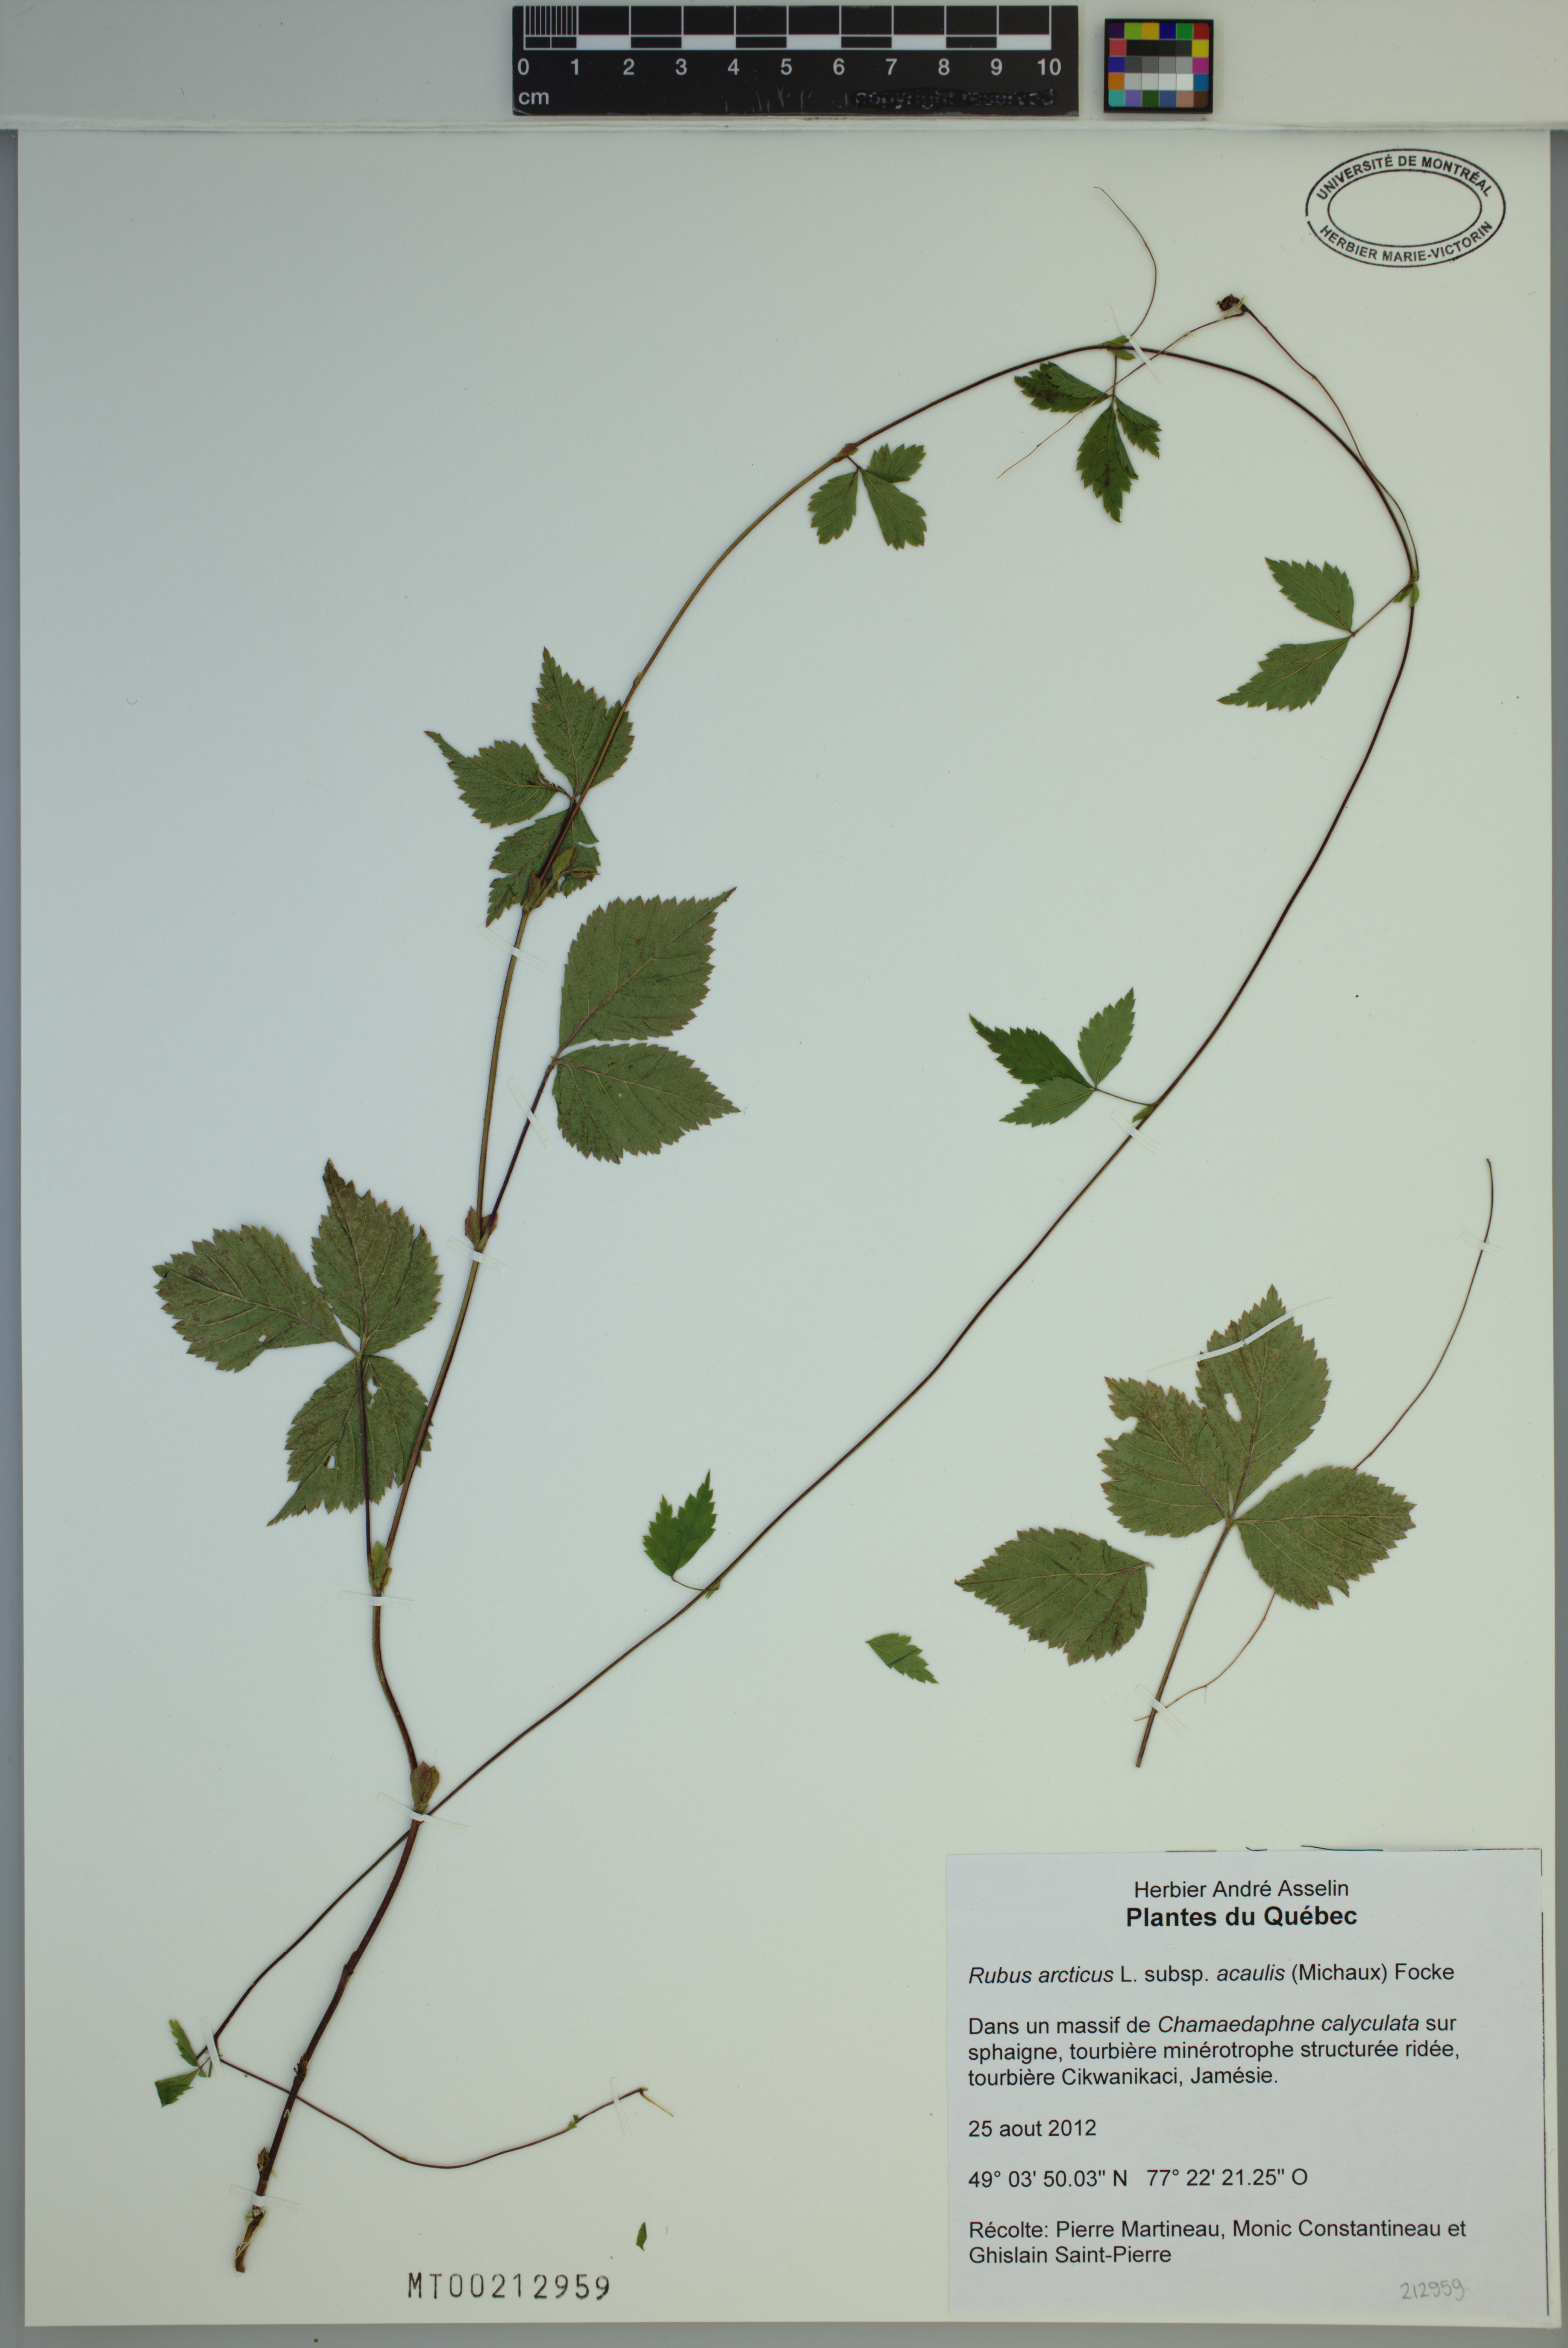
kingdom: Plantae
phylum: Tracheophyta
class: Magnoliopsida
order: Rosales
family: Rosaceae
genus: Rubus
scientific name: Rubus arcticus
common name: Arctic bramble
